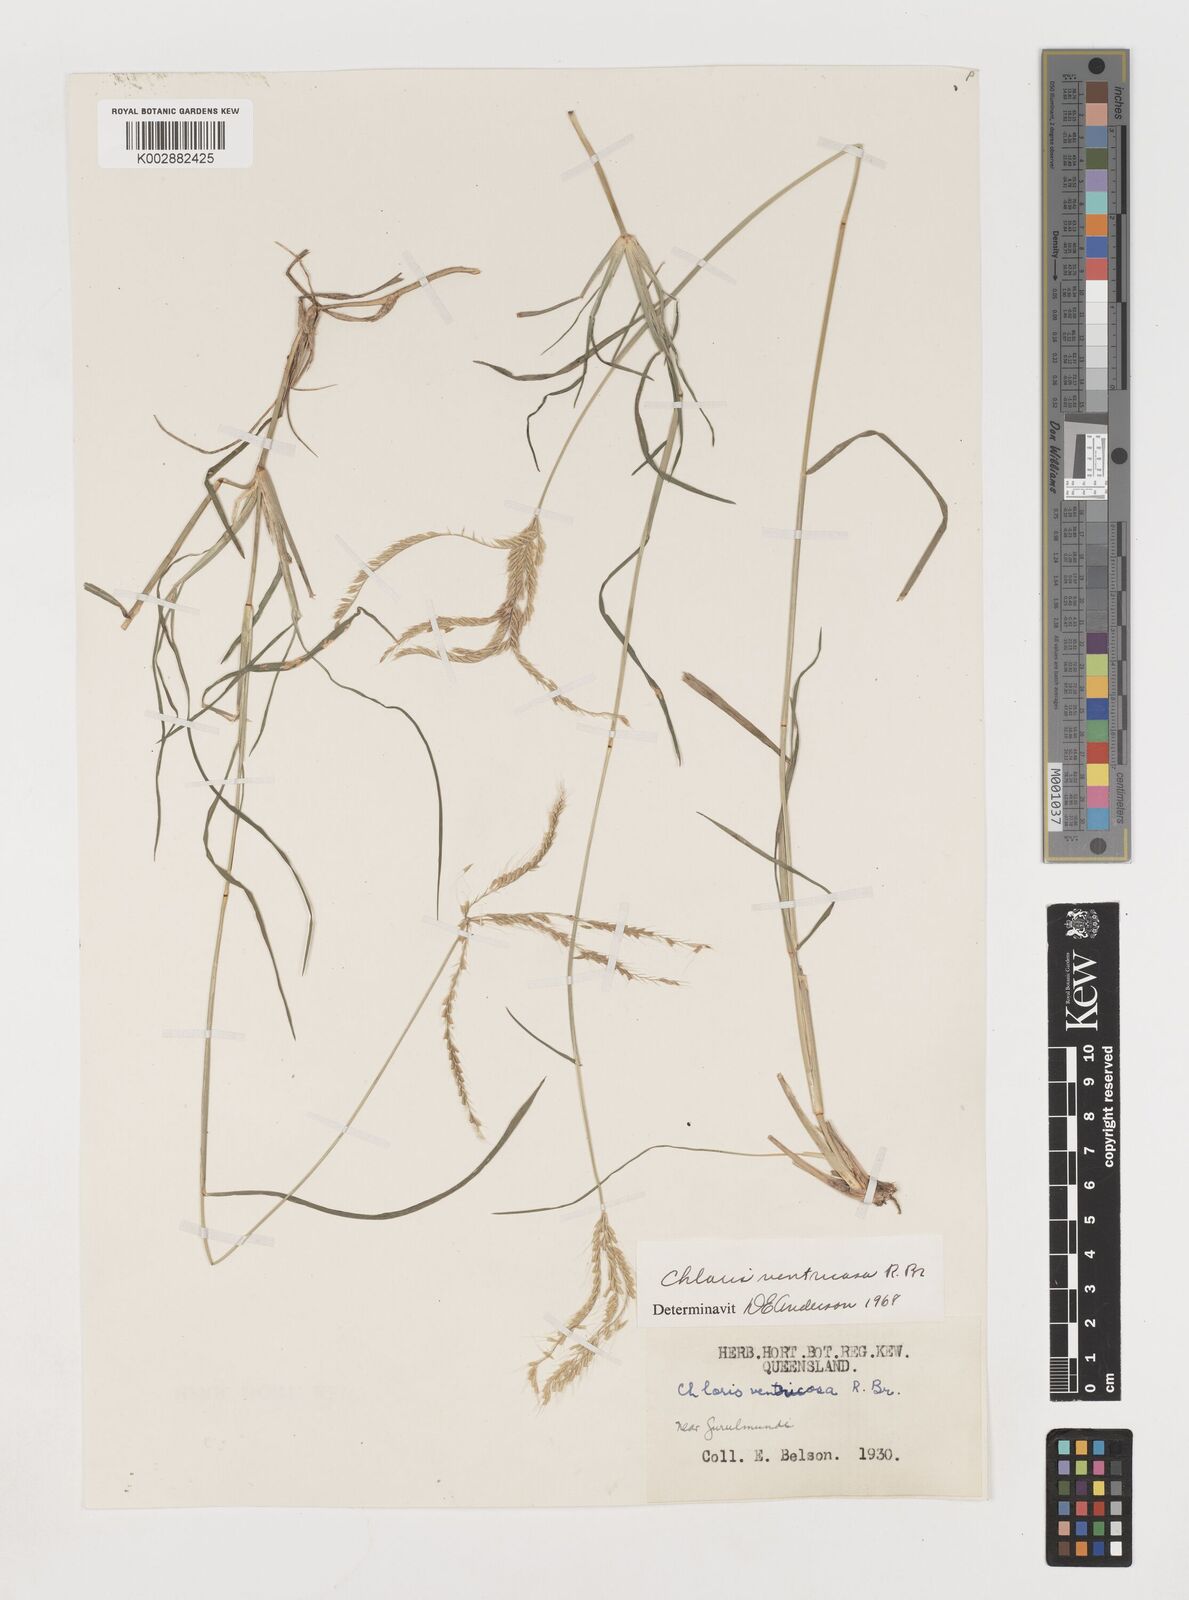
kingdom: Plantae
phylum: Tracheophyta
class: Liliopsida
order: Poales
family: Poaceae
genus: Chloris
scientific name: Chloris ventricosa
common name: Australian windmill grass
